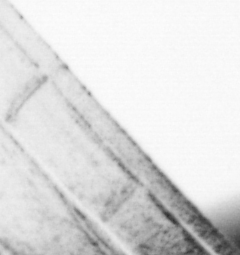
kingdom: Animalia
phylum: Chordata
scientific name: Chordata
